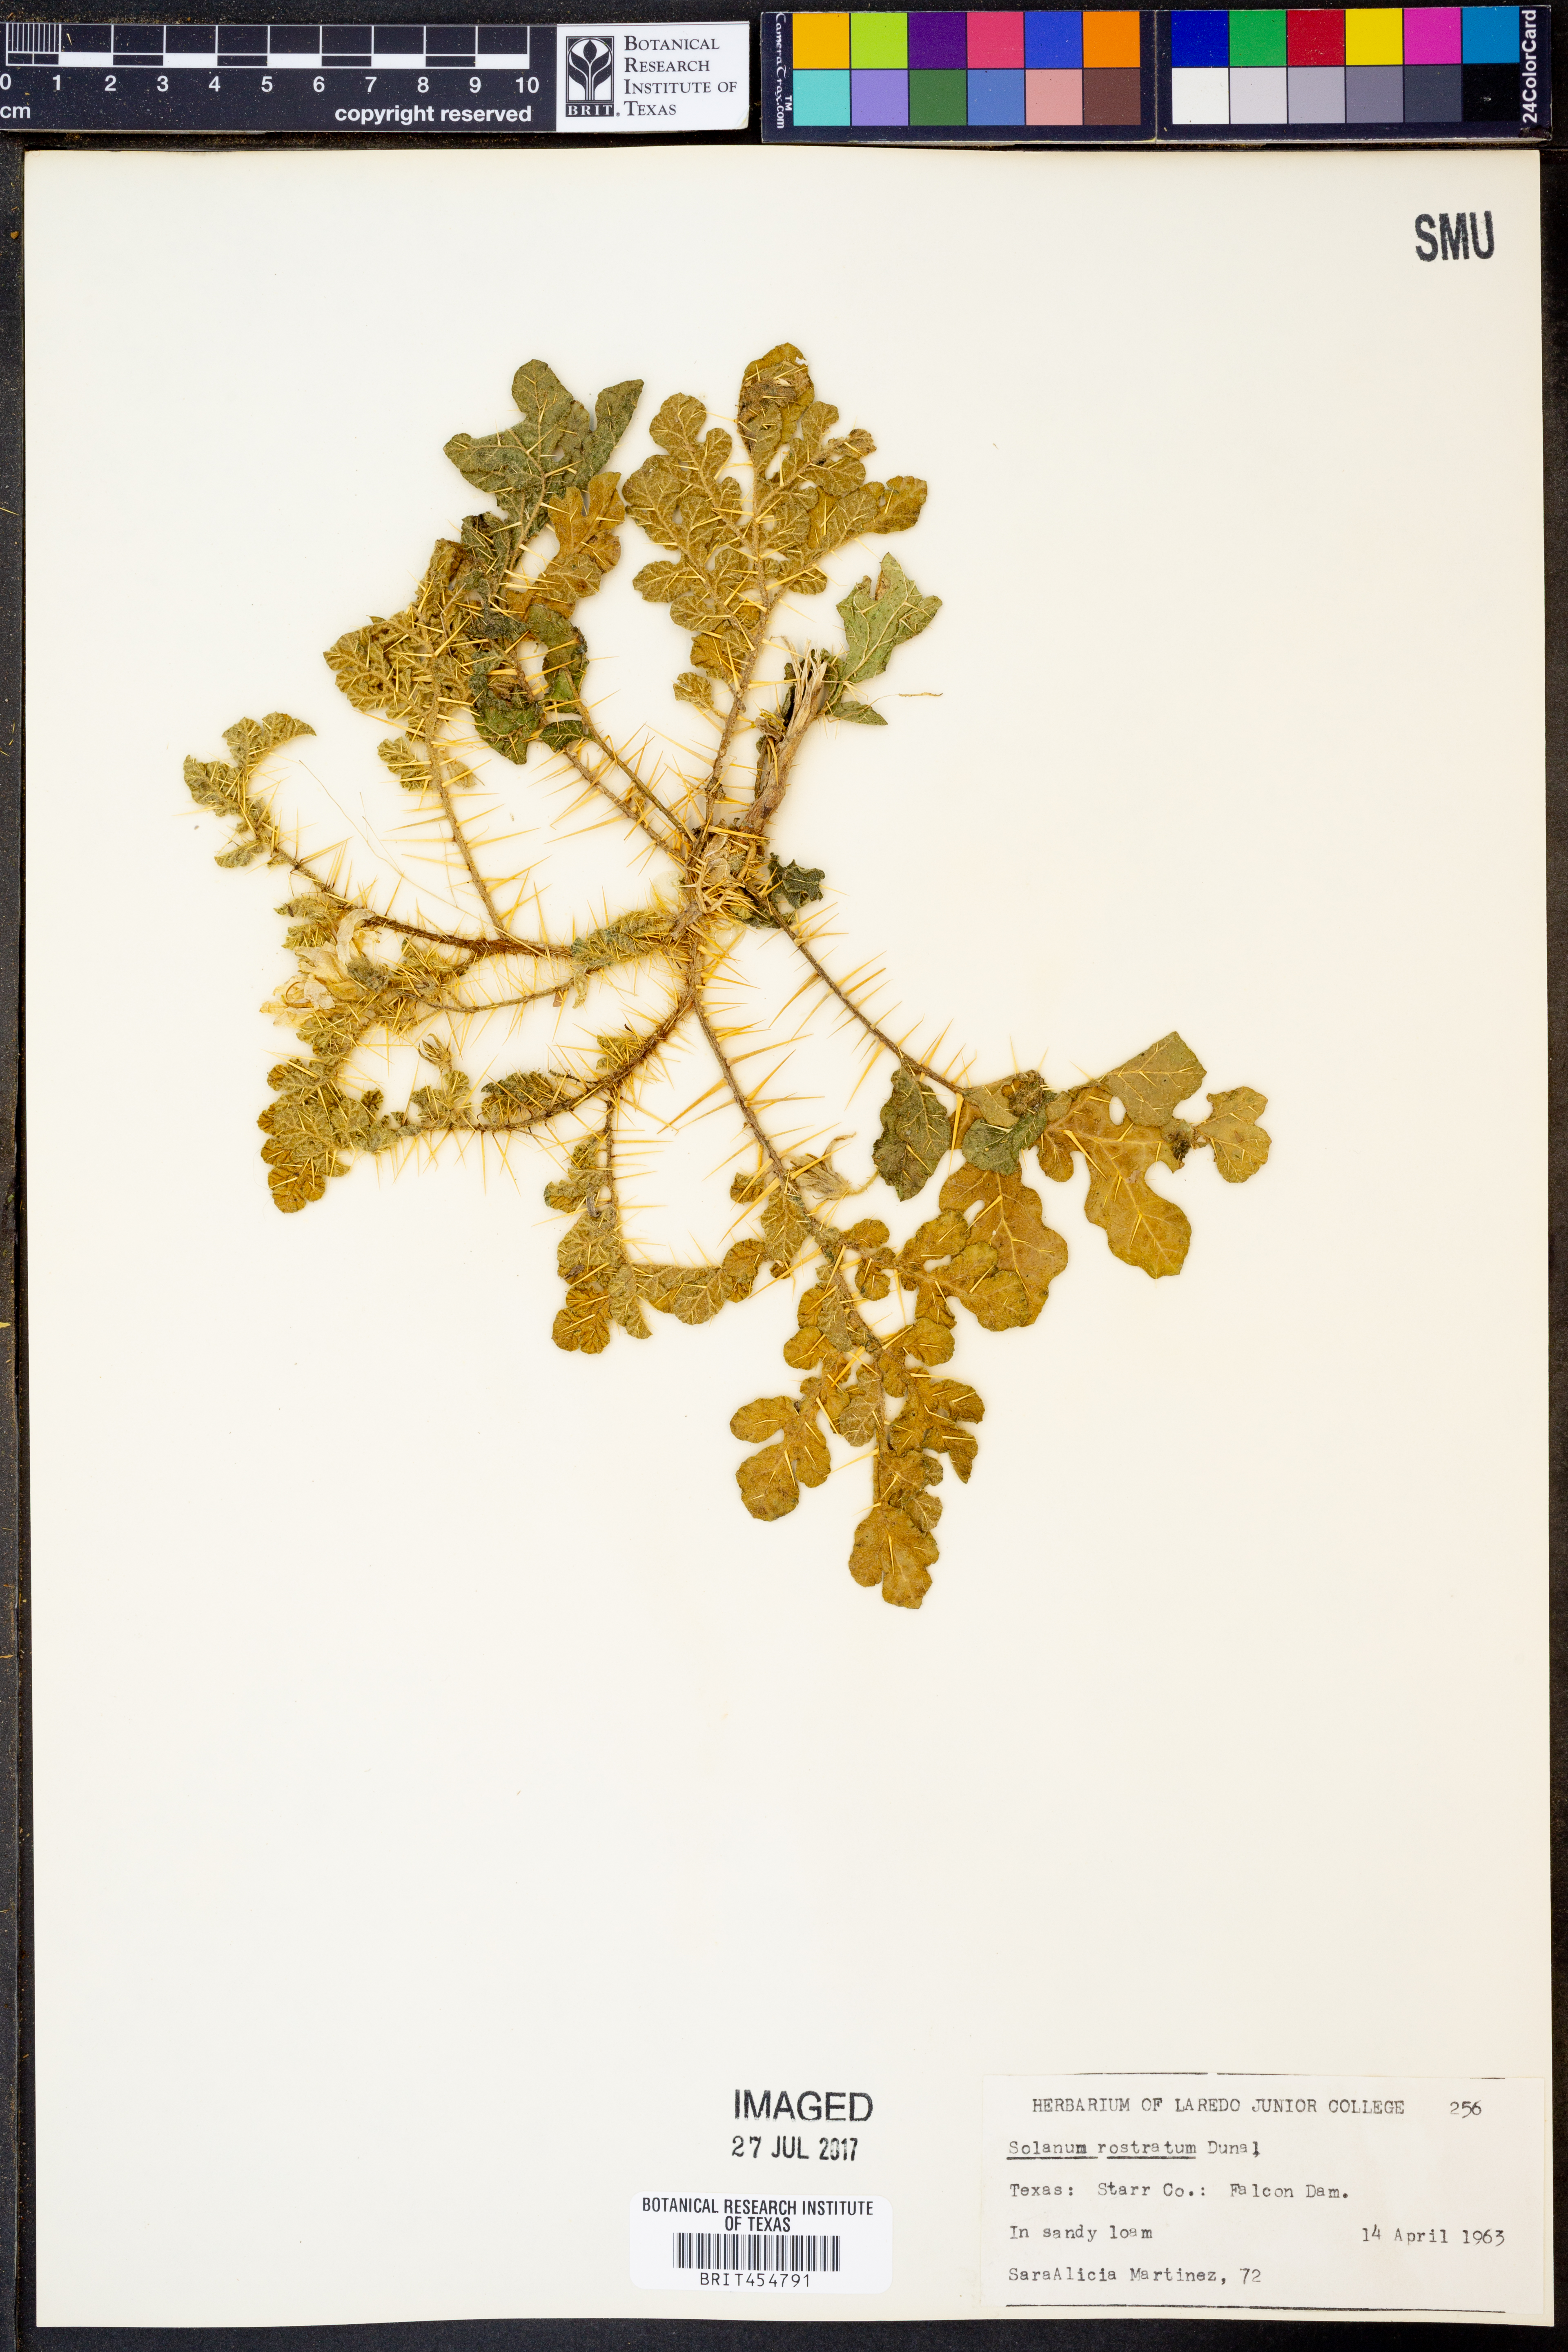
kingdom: Plantae
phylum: Tracheophyta
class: Magnoliopsida
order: Solanales
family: Solanaceae
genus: Solanum
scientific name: Solanum angustifolium
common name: Buffalobur nightshade
